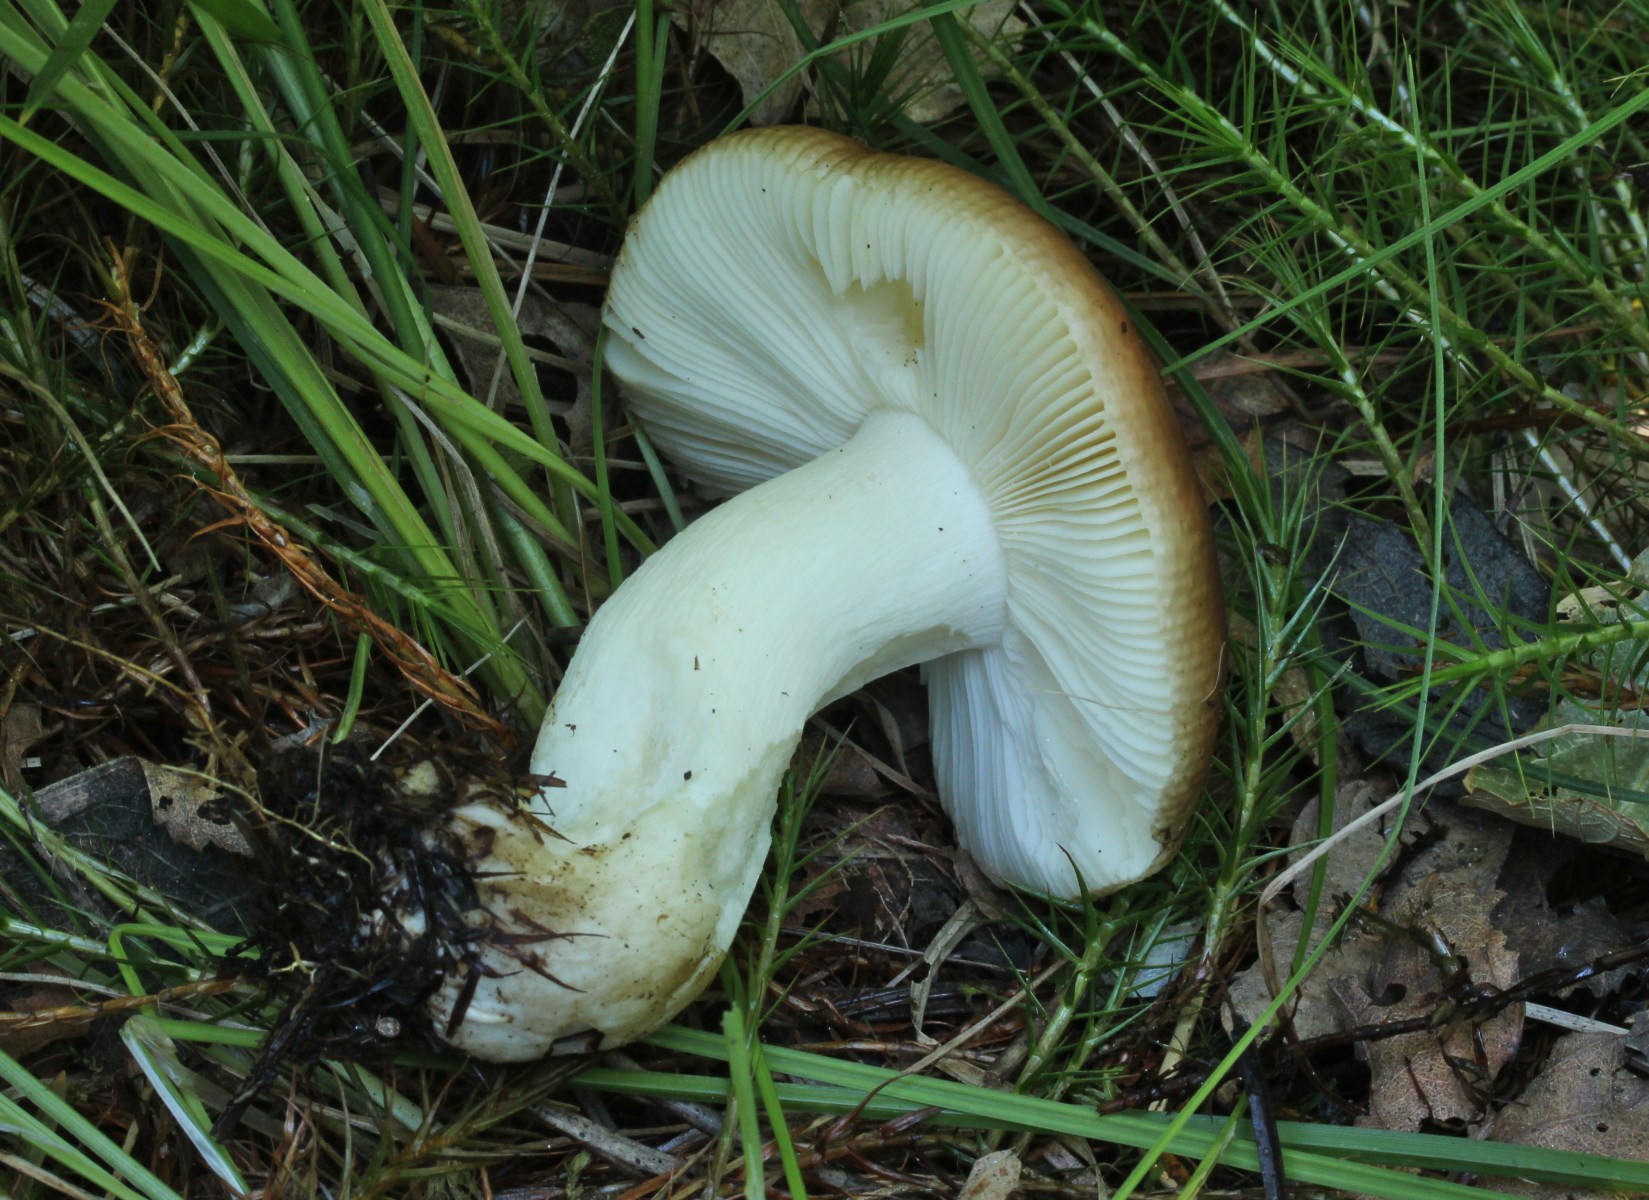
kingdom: Fungi
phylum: Basidiomycota
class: Agaricomycetes
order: Russulales
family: Russulaceae
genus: Russula
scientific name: Russula clavipes
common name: olivengrøn skørhat
